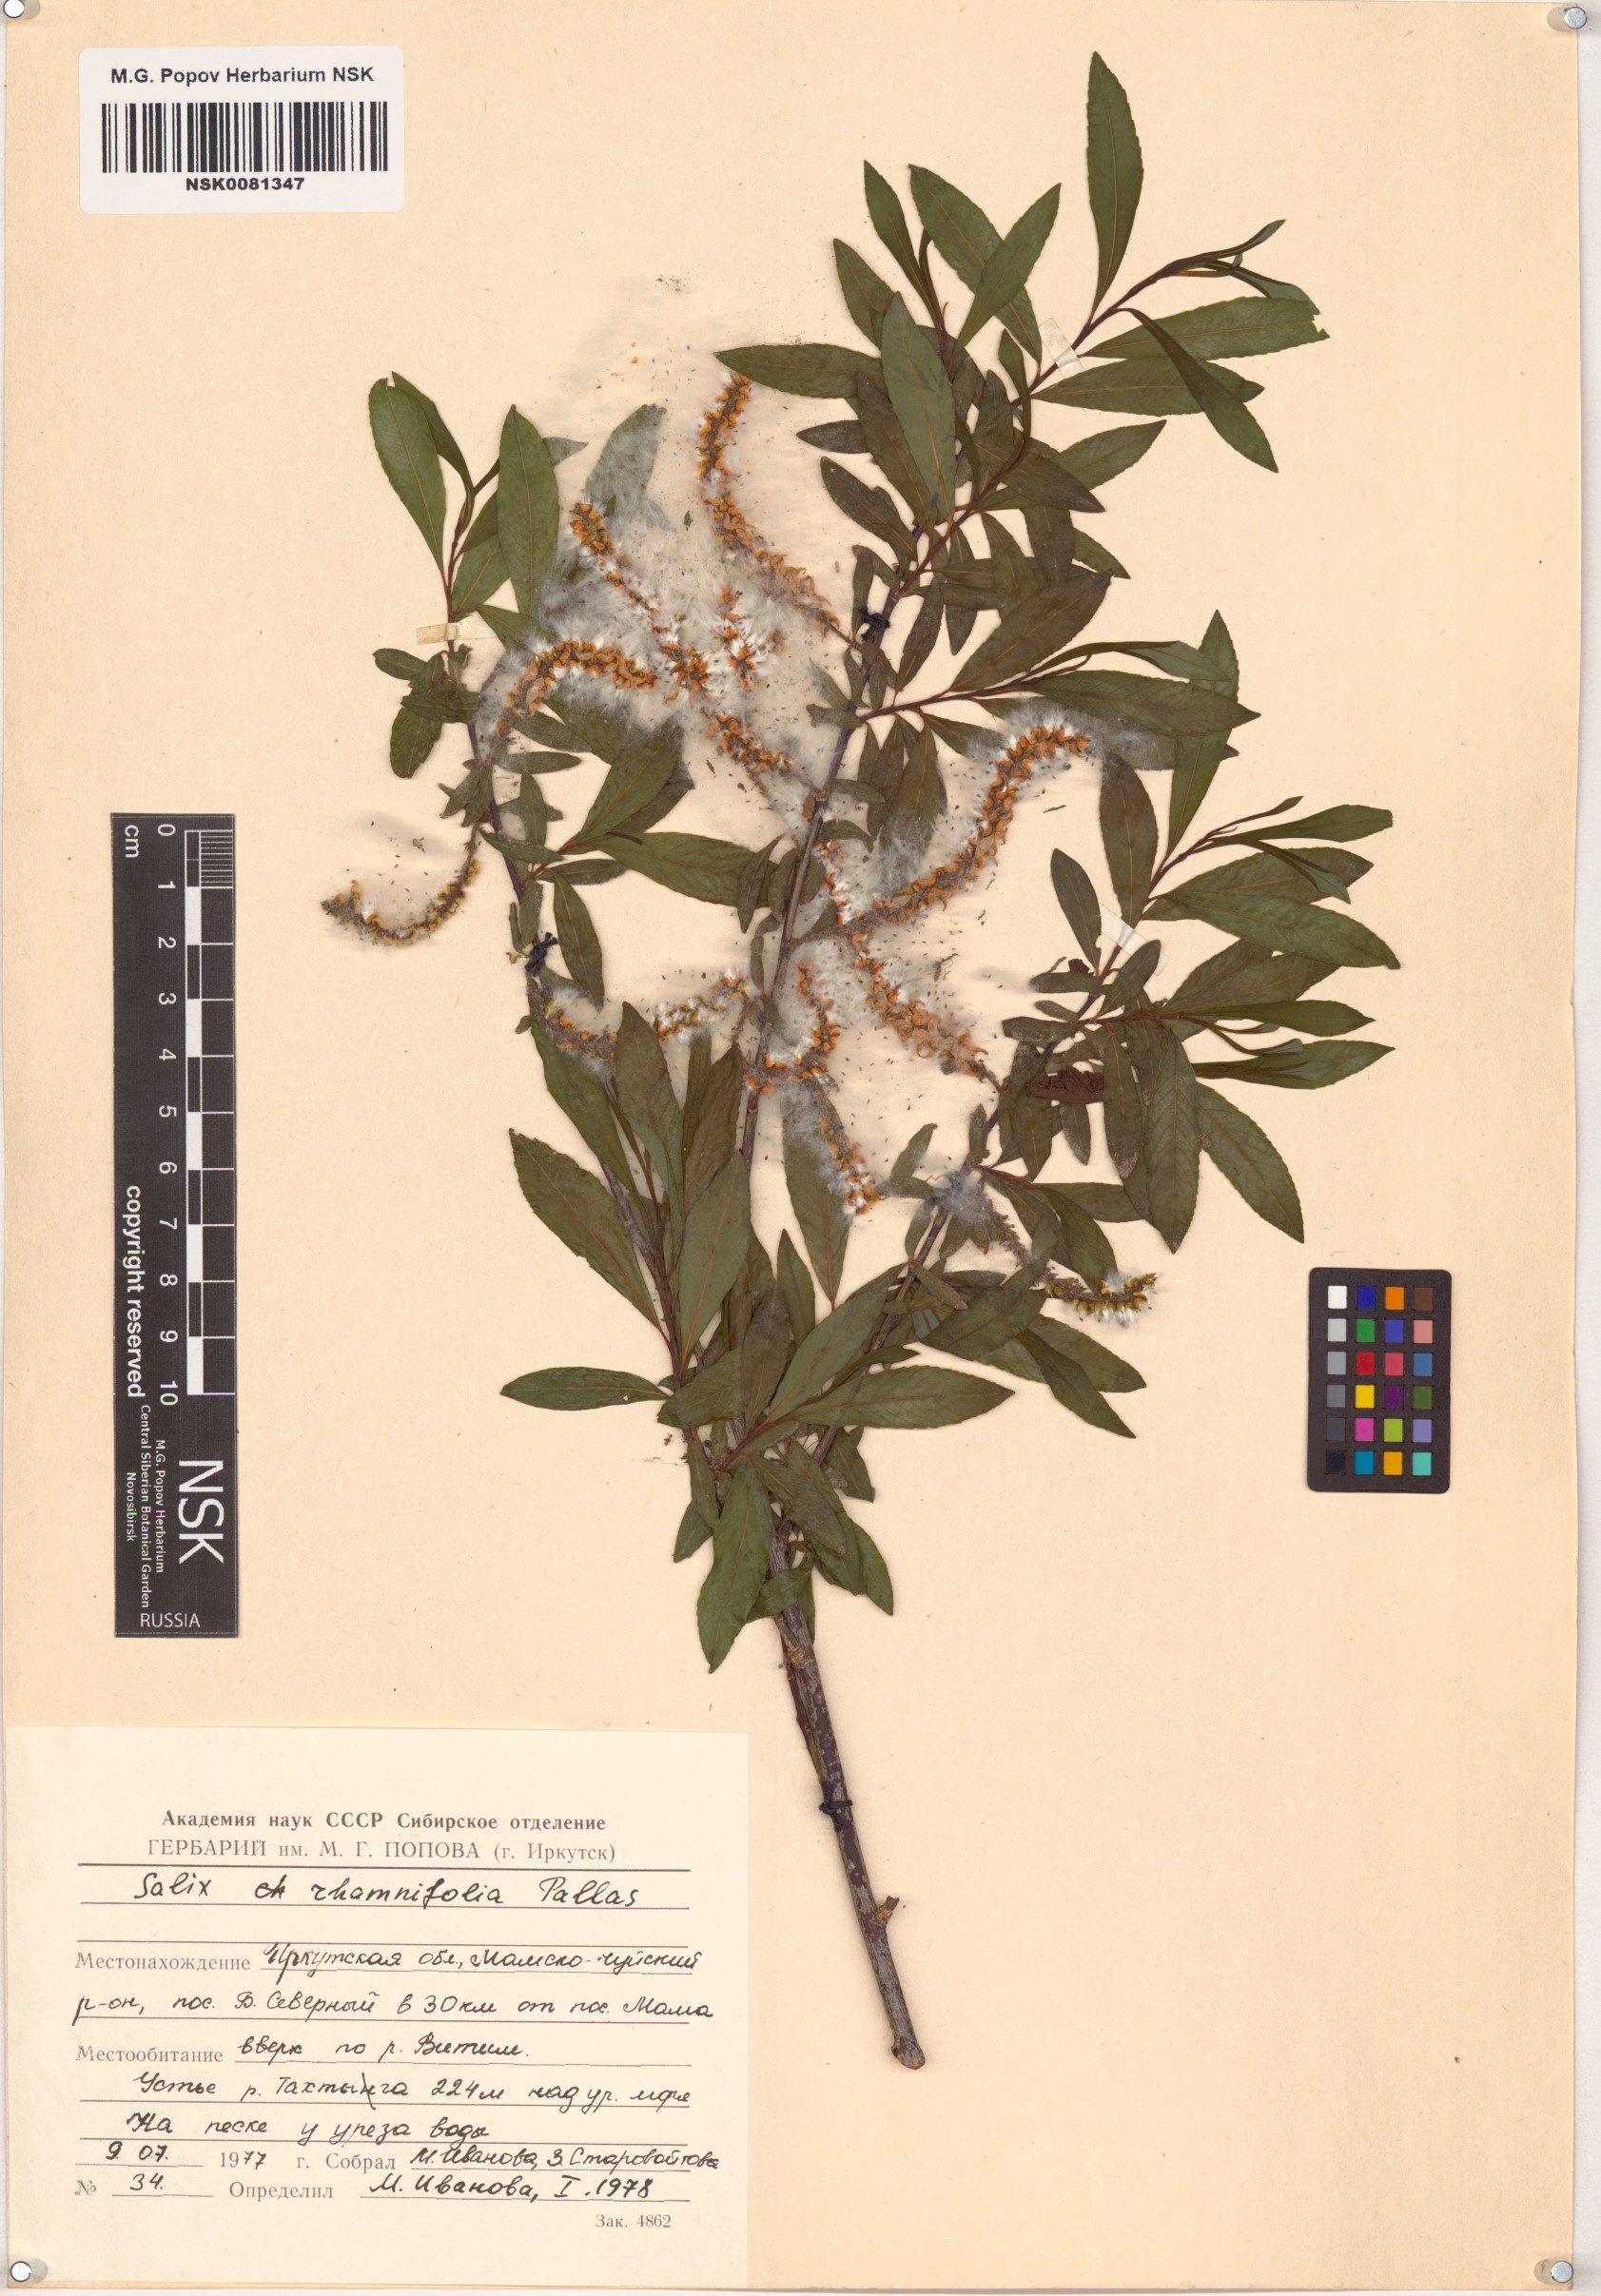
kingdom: Plantae
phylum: Tracheophyta
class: Magnoliopsida
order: Malpighiales
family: Salicaceae
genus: Salix
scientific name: Salix rhamnifolia
